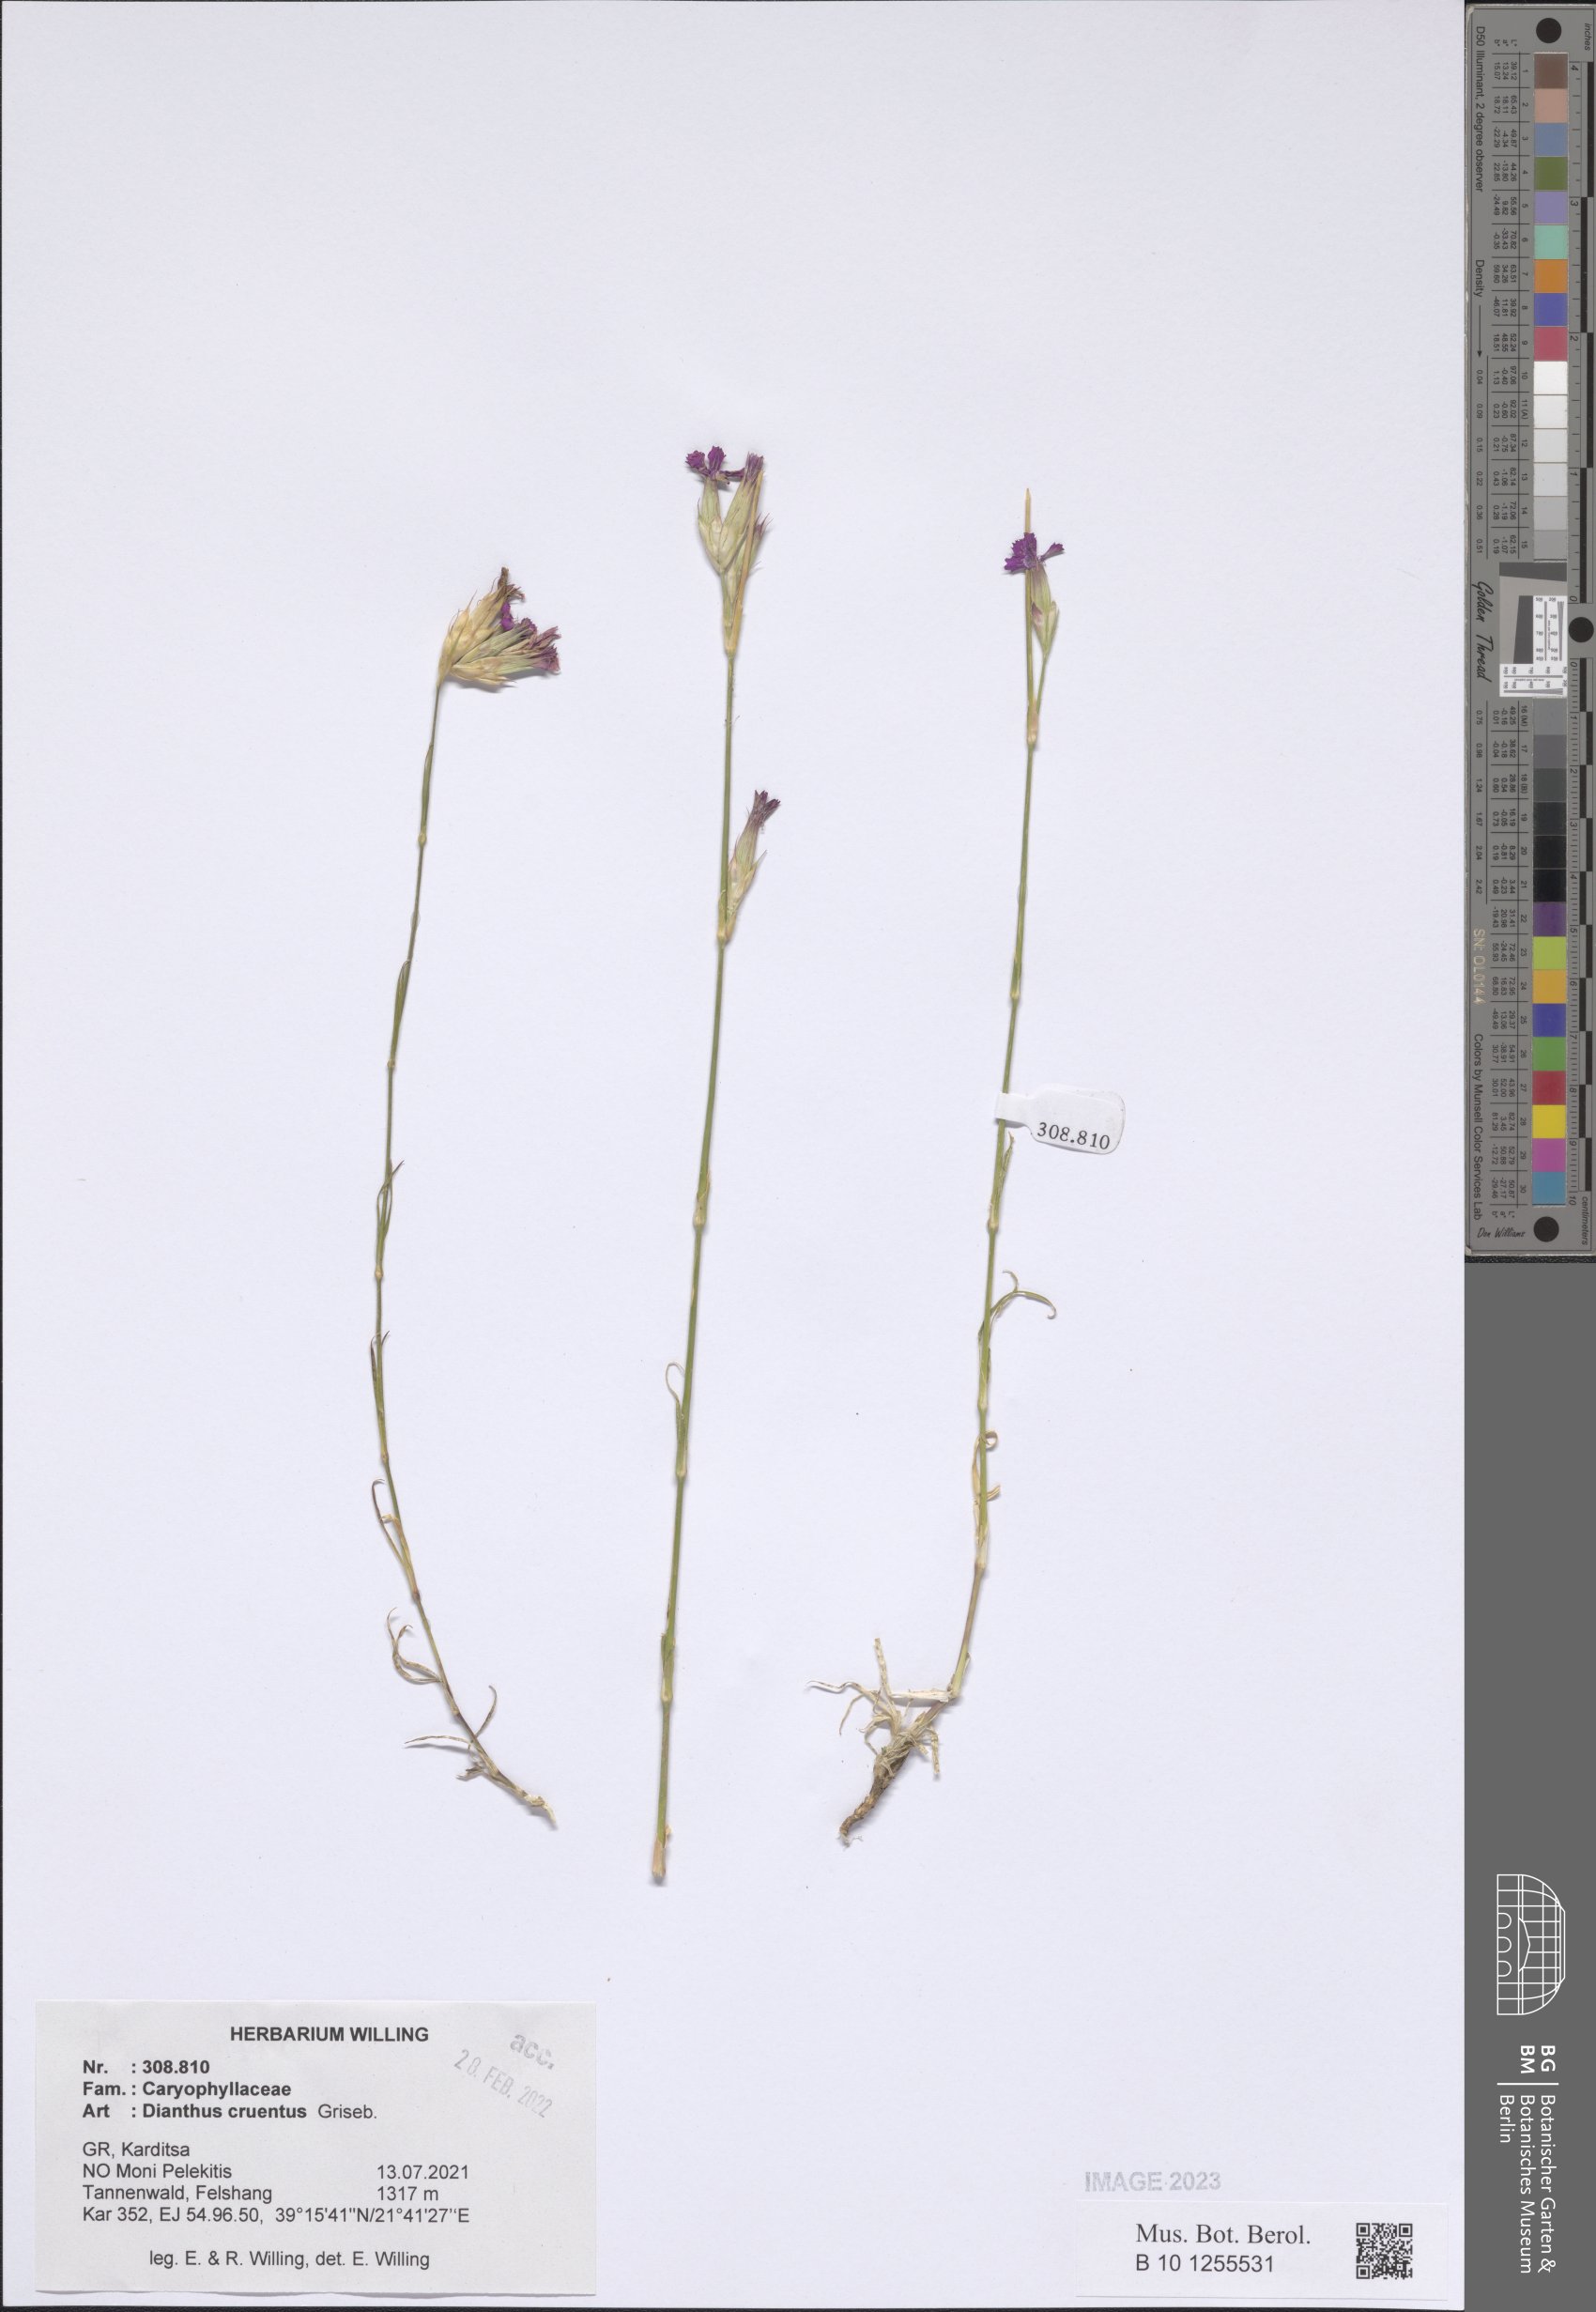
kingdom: Plantae
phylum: Tracheophyta
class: Magnoliopsida
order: Caryophyllales
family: Caryophyllaceae
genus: Dianthus
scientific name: Dianthus cruentus
